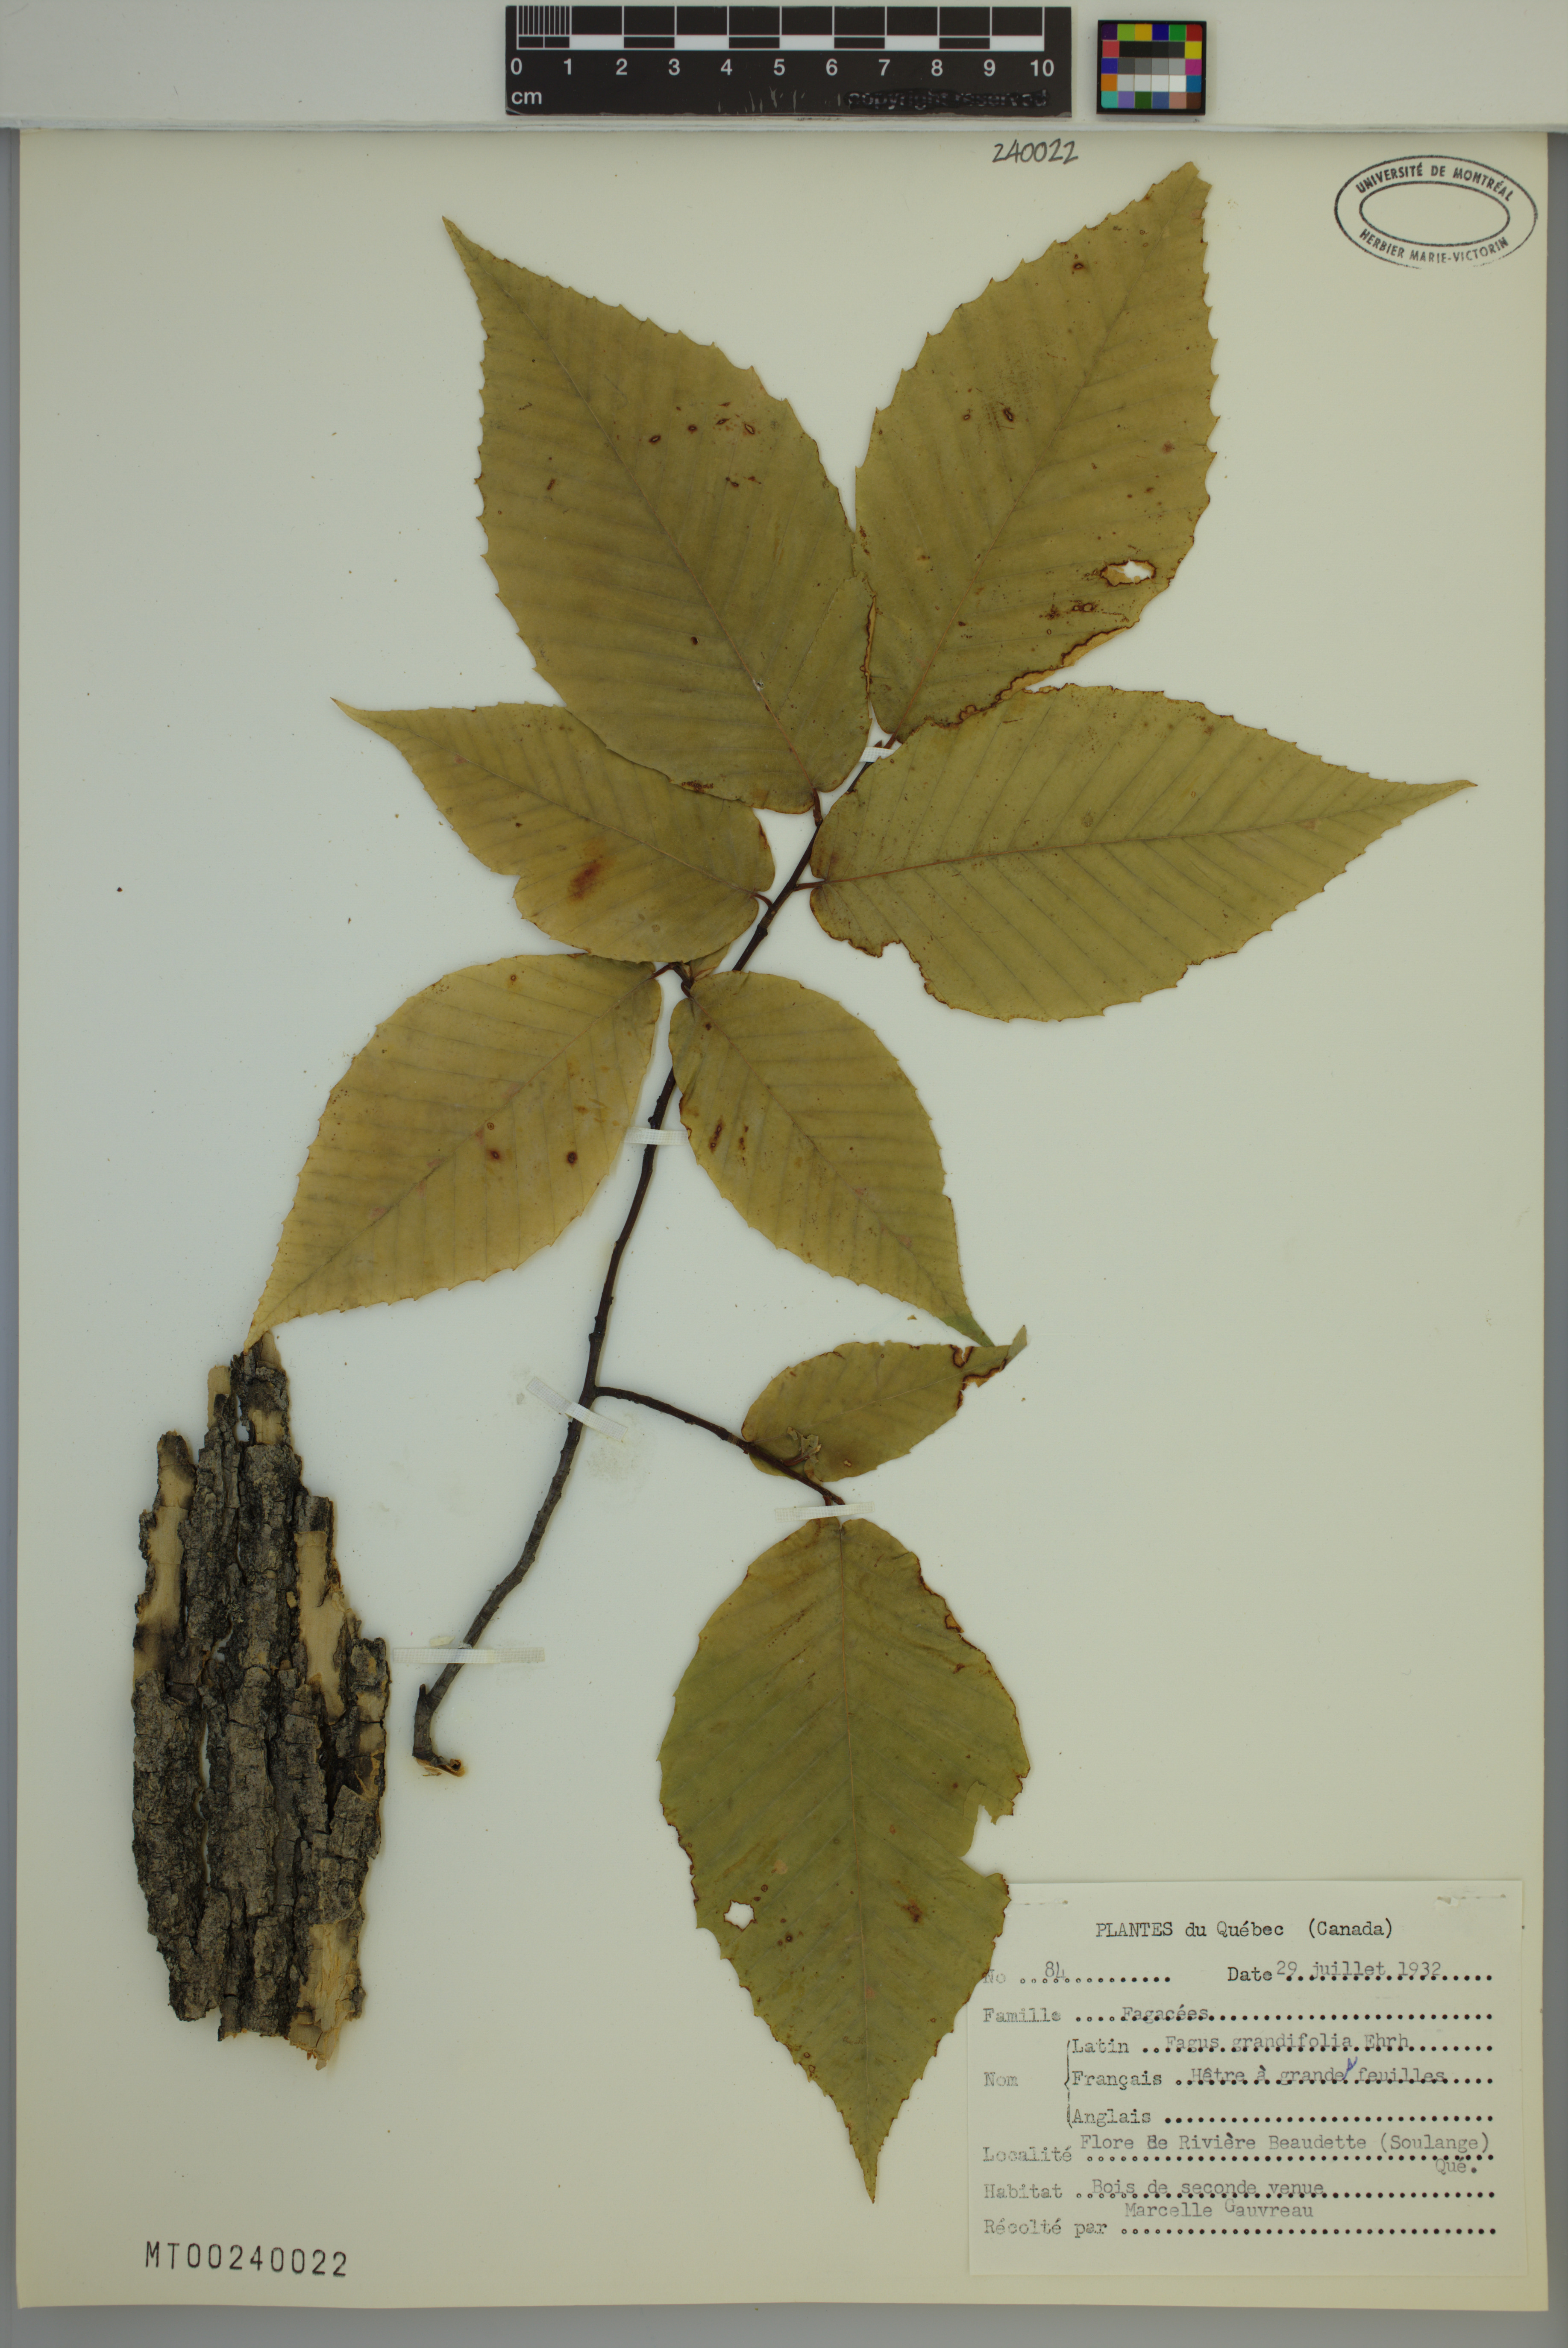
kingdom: Plantae
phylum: Tracheophyta
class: Magnoliopsida
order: Fagales
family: Fagaceae
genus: Fagus
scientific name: Fagus grandifolia
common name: American beech
